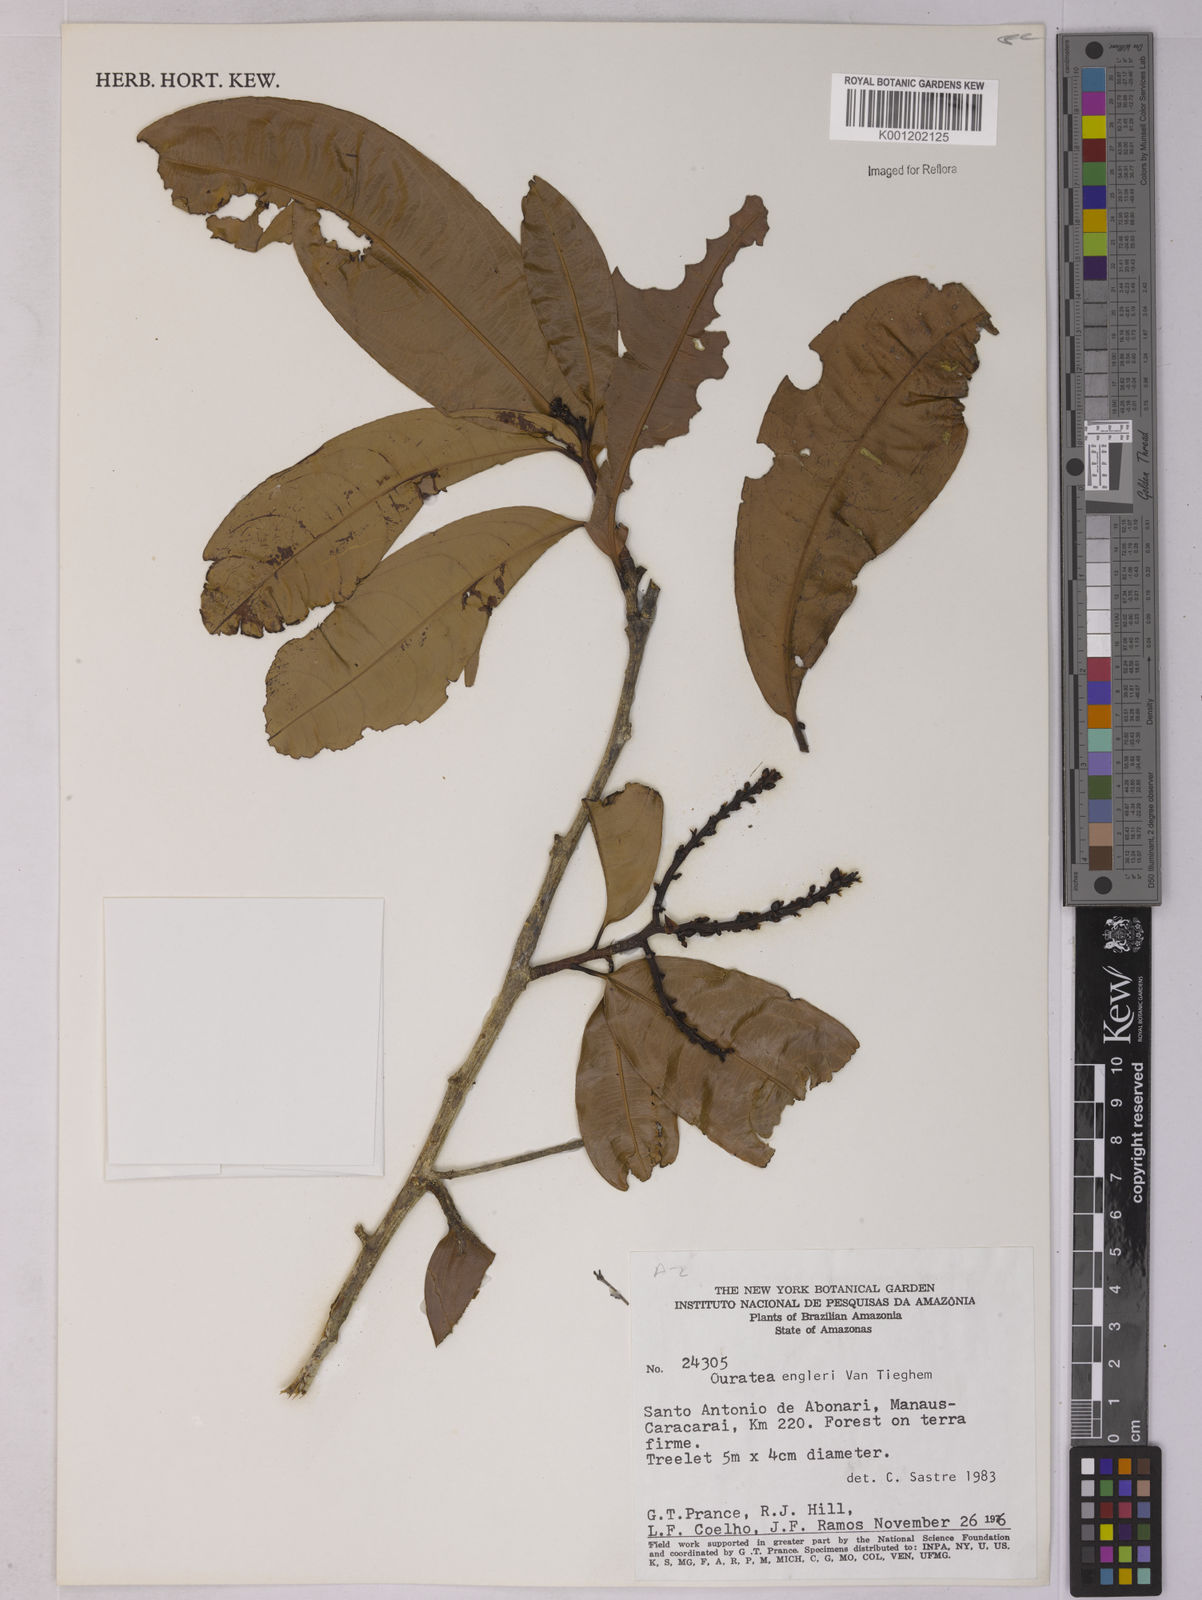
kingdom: Plantae
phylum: Tracheophyta
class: Magnoliopsida
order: Malpighiales
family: Ochnaceae
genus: Ouratea
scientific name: Ouratea engleri
